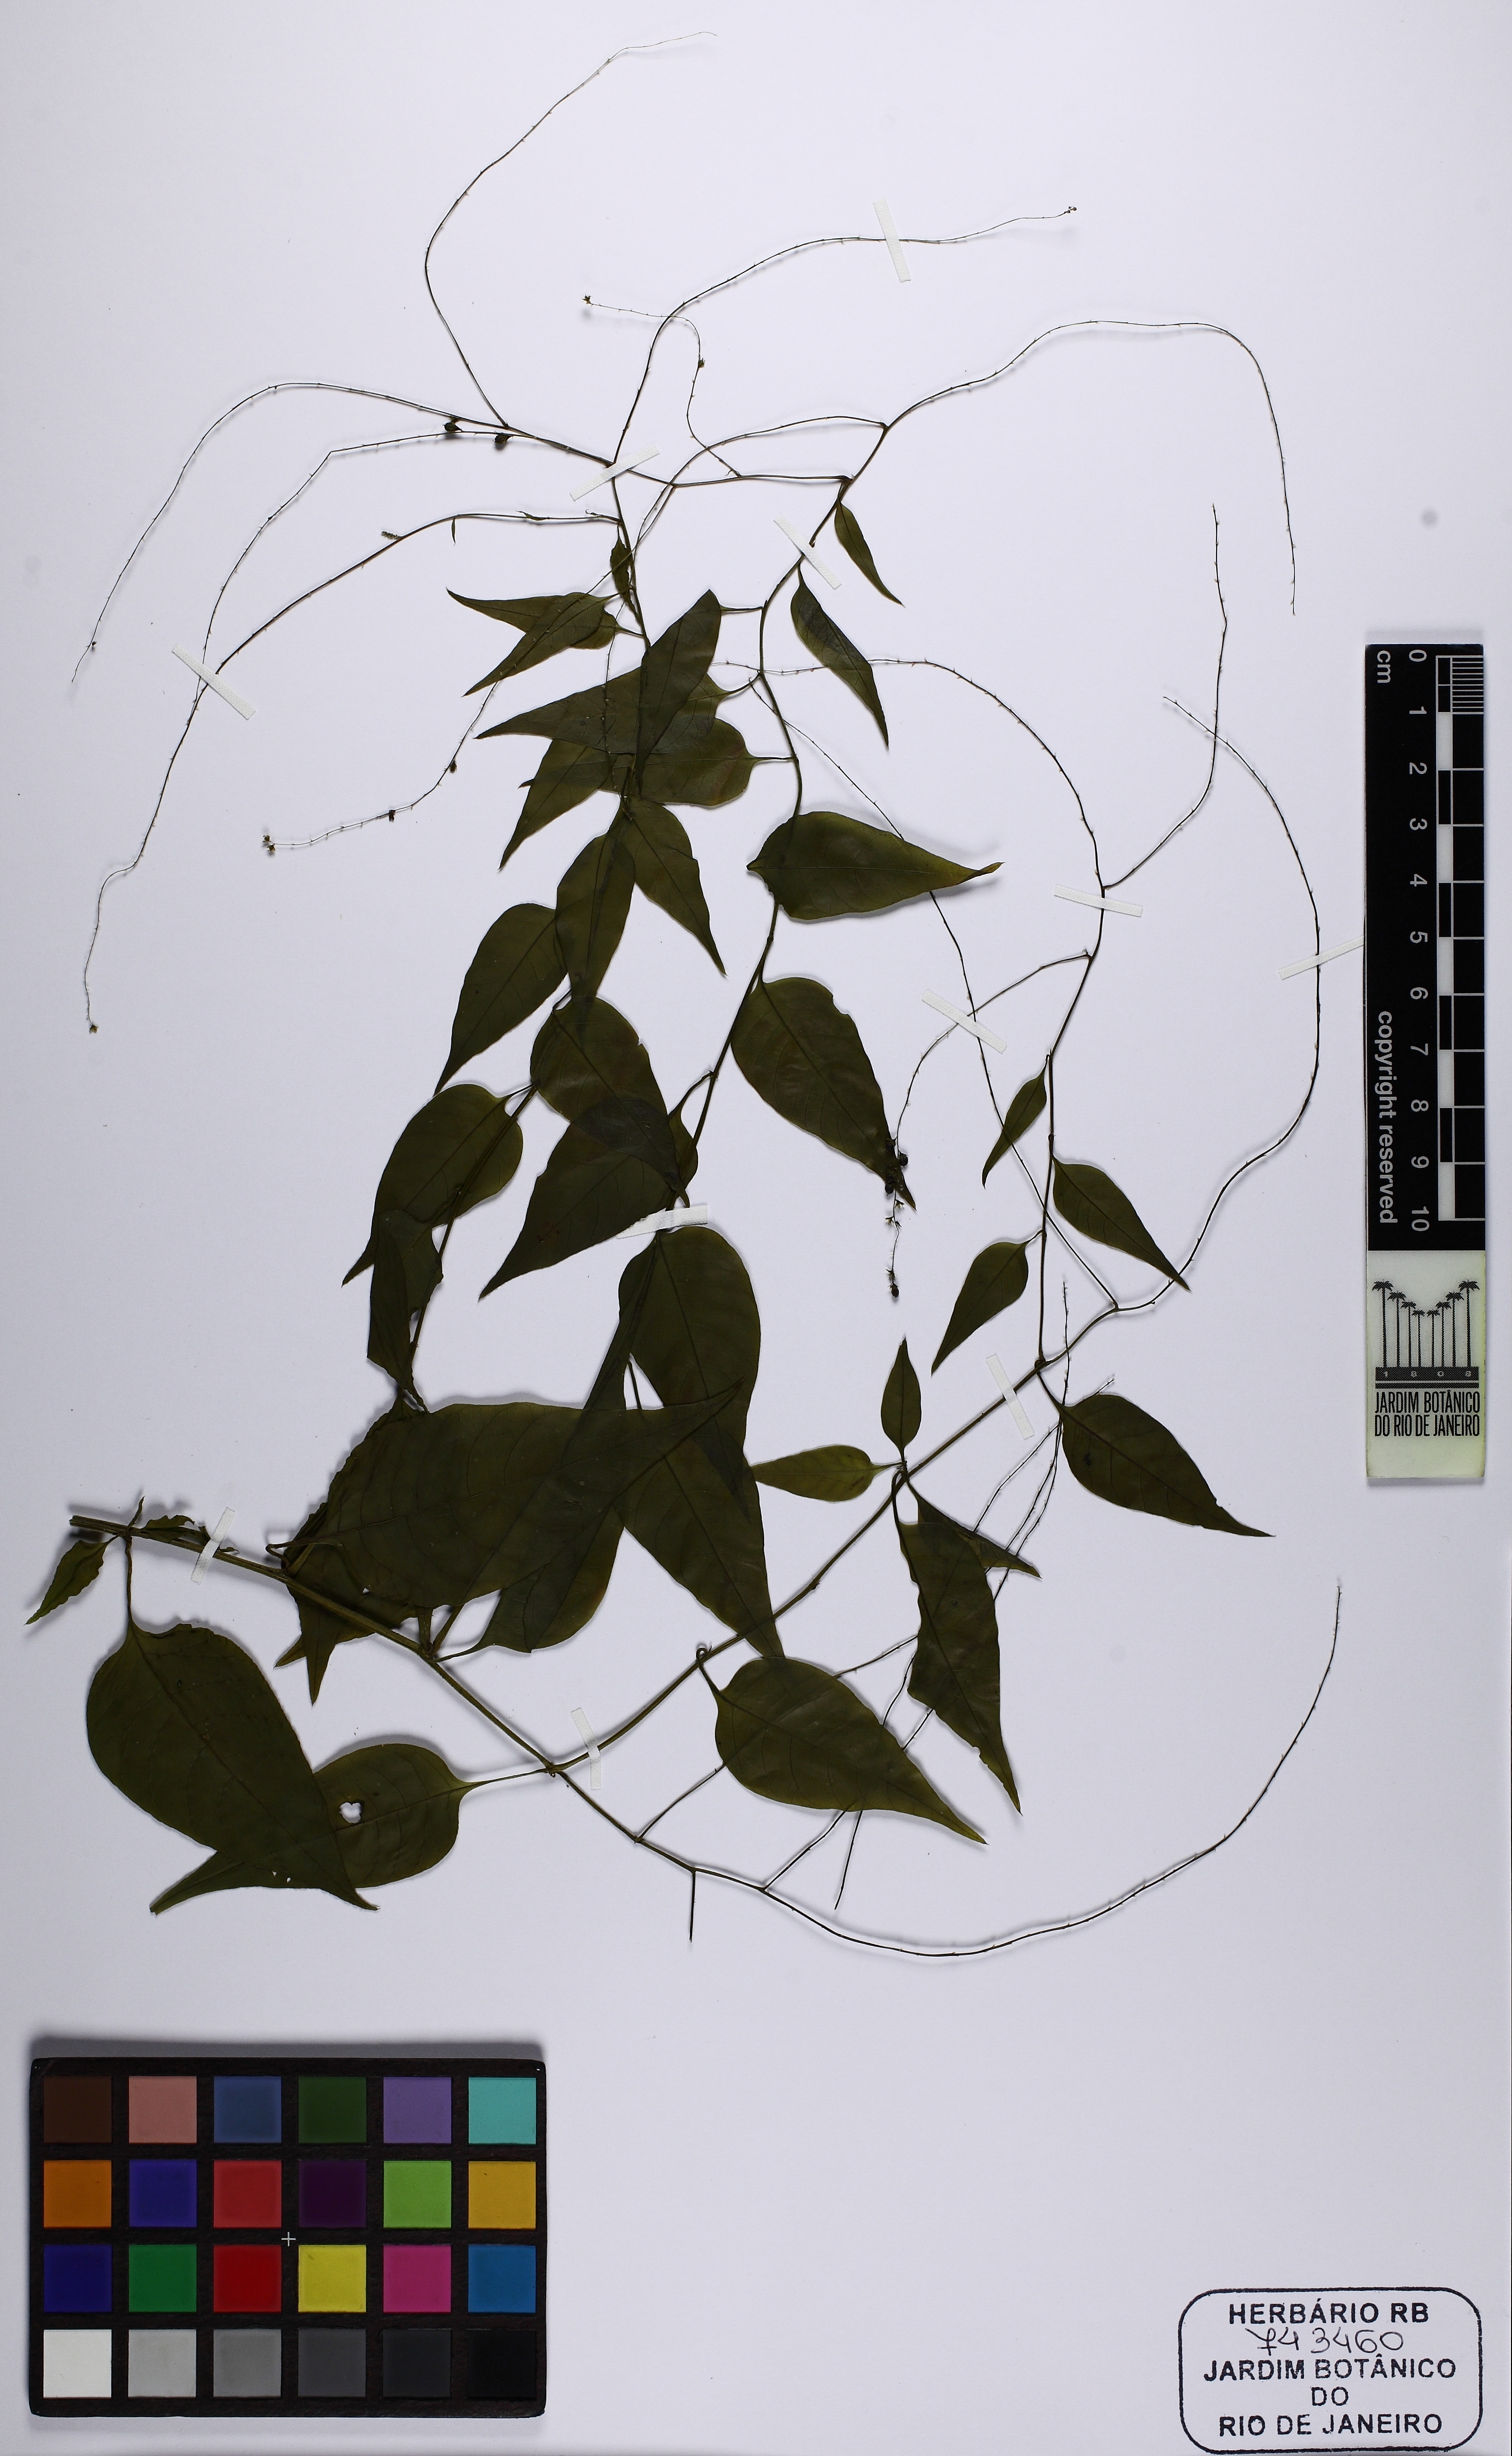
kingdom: Plantae
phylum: Tracheophyta
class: Magnoliopsida
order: Caryophyllales
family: Microteaceae
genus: Microtea
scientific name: Microtea
